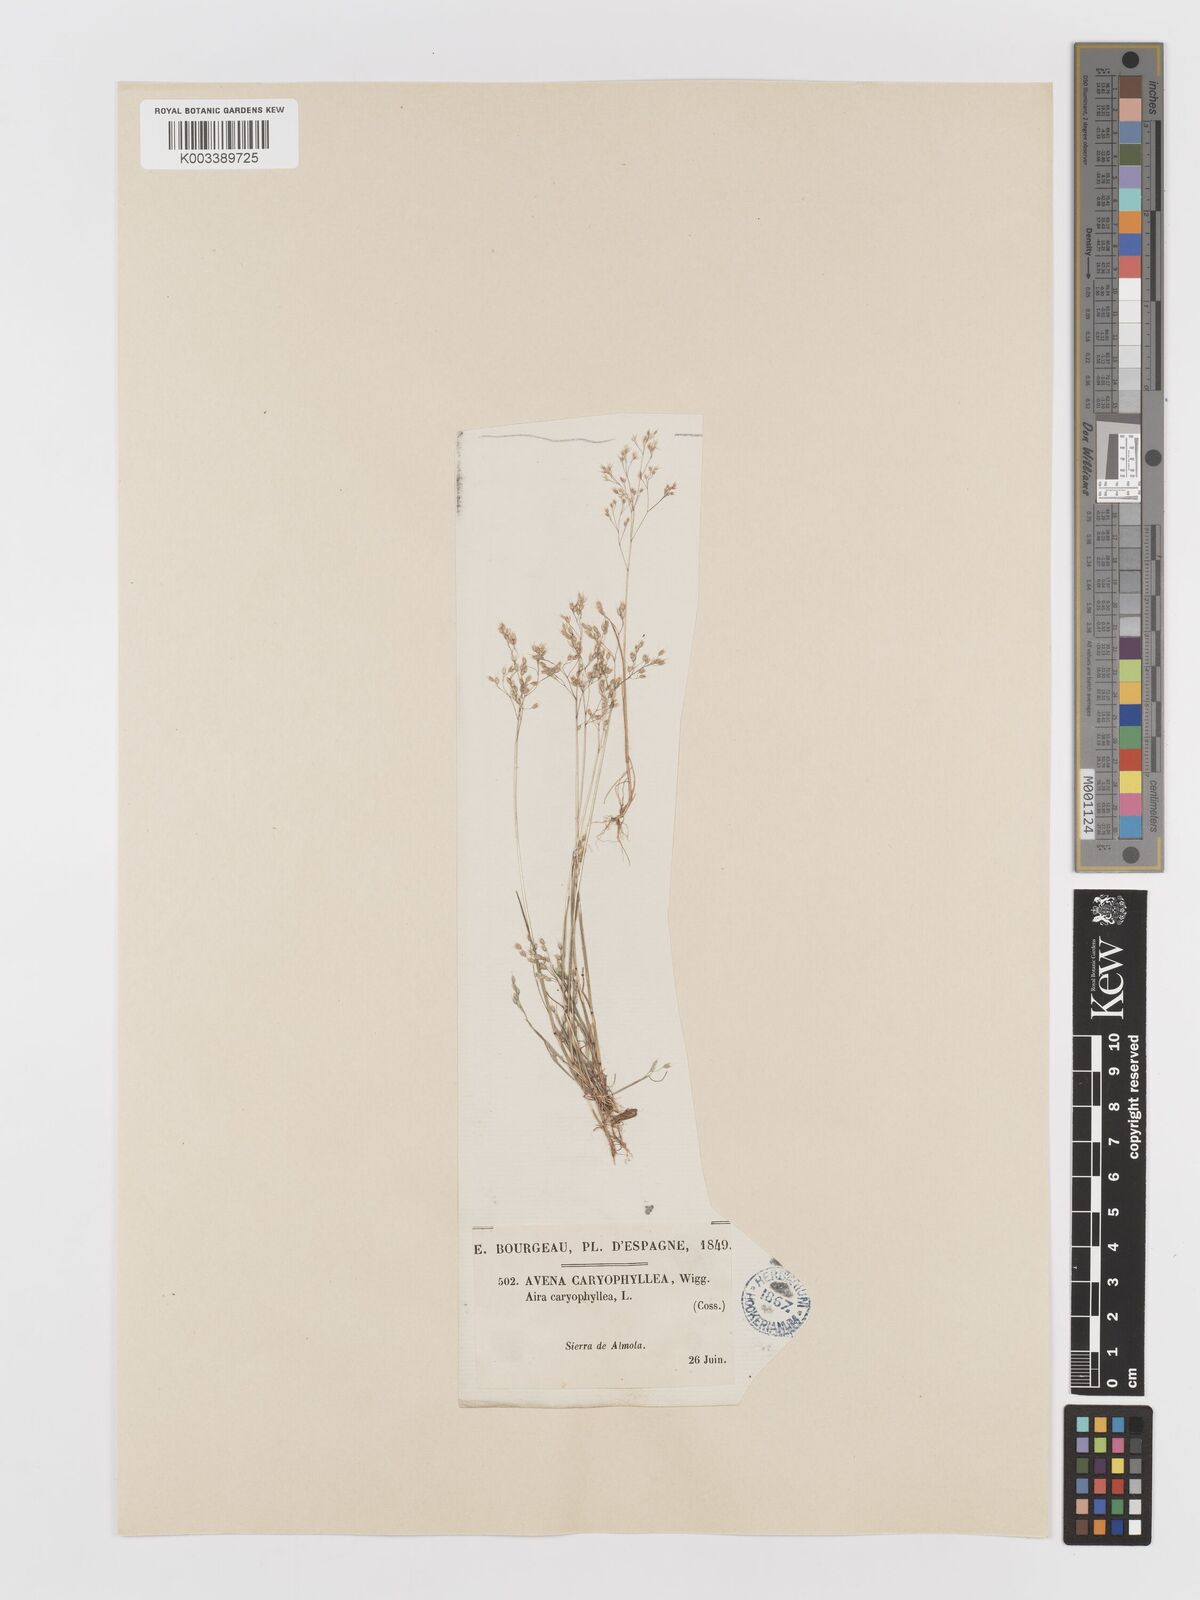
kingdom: Plantae
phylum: Tracheophyta
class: Liliopsida
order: Poales
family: Poaceae
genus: Aira
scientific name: Aira caryophyllea
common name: Silver hairgrass
